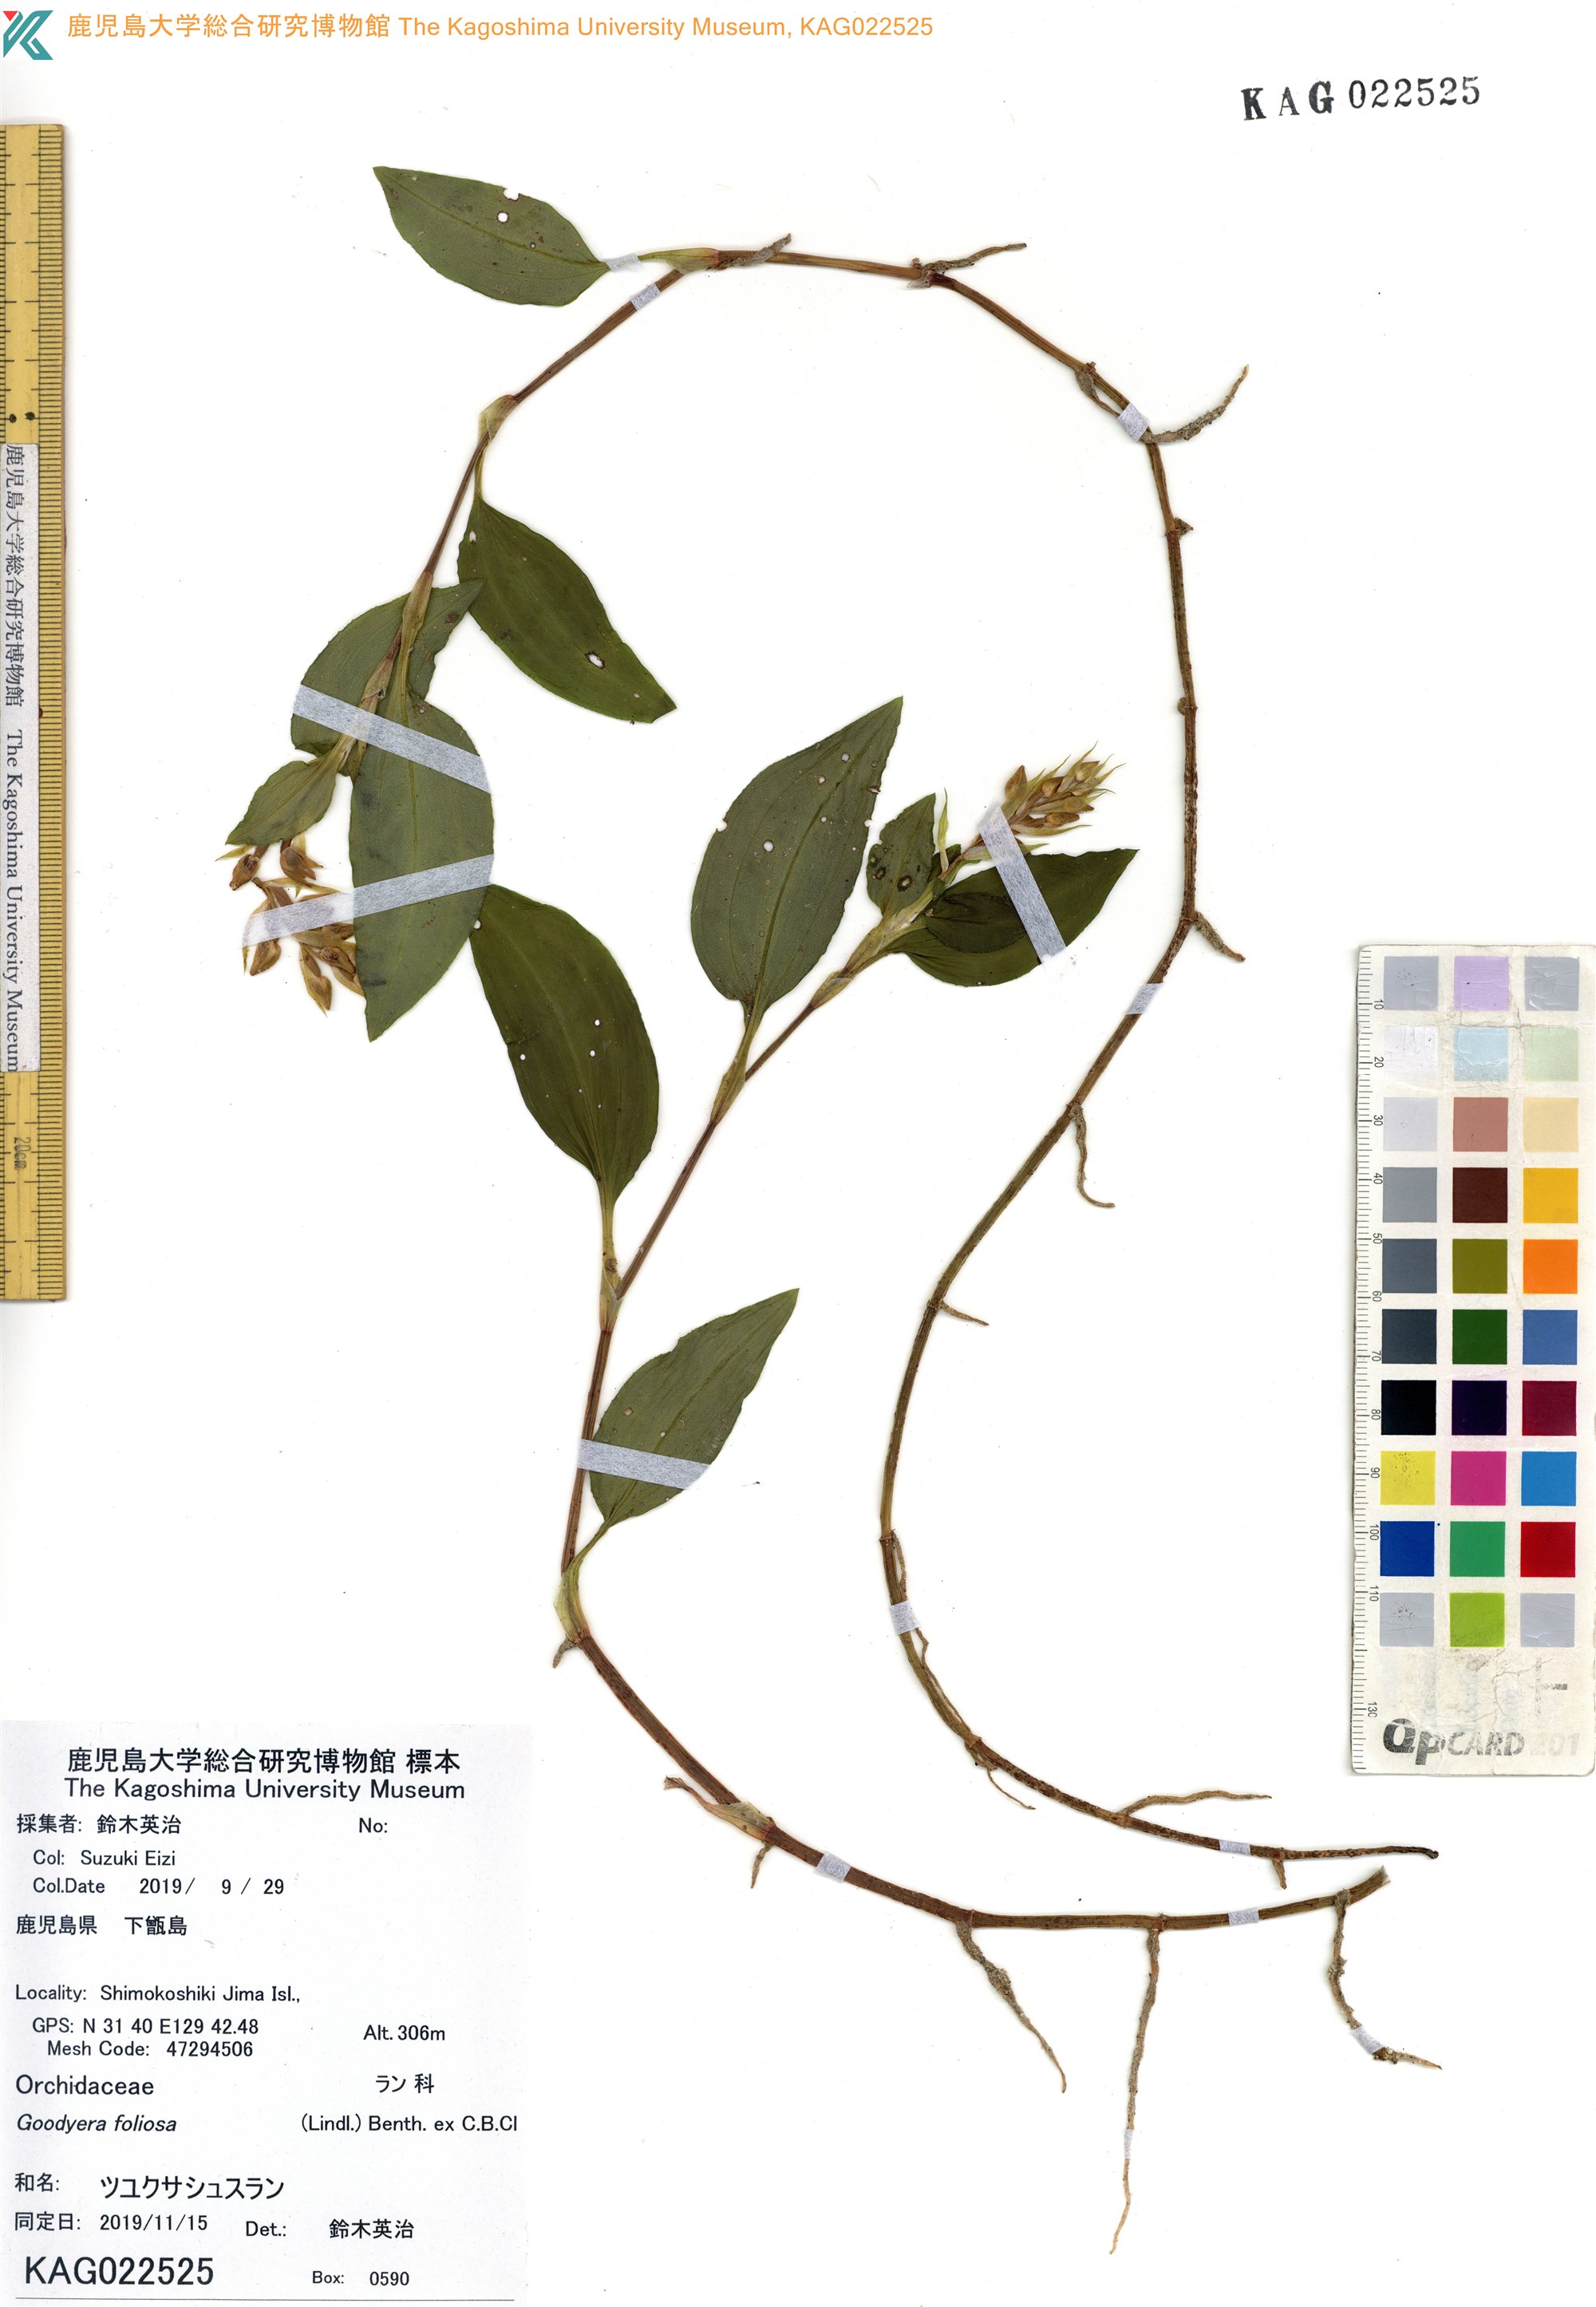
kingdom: Plantae
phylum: Tracheophyta
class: Liliopsida
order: Asparagales
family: Orchidaceae
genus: Goodyera
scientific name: Goodyera foliosa
